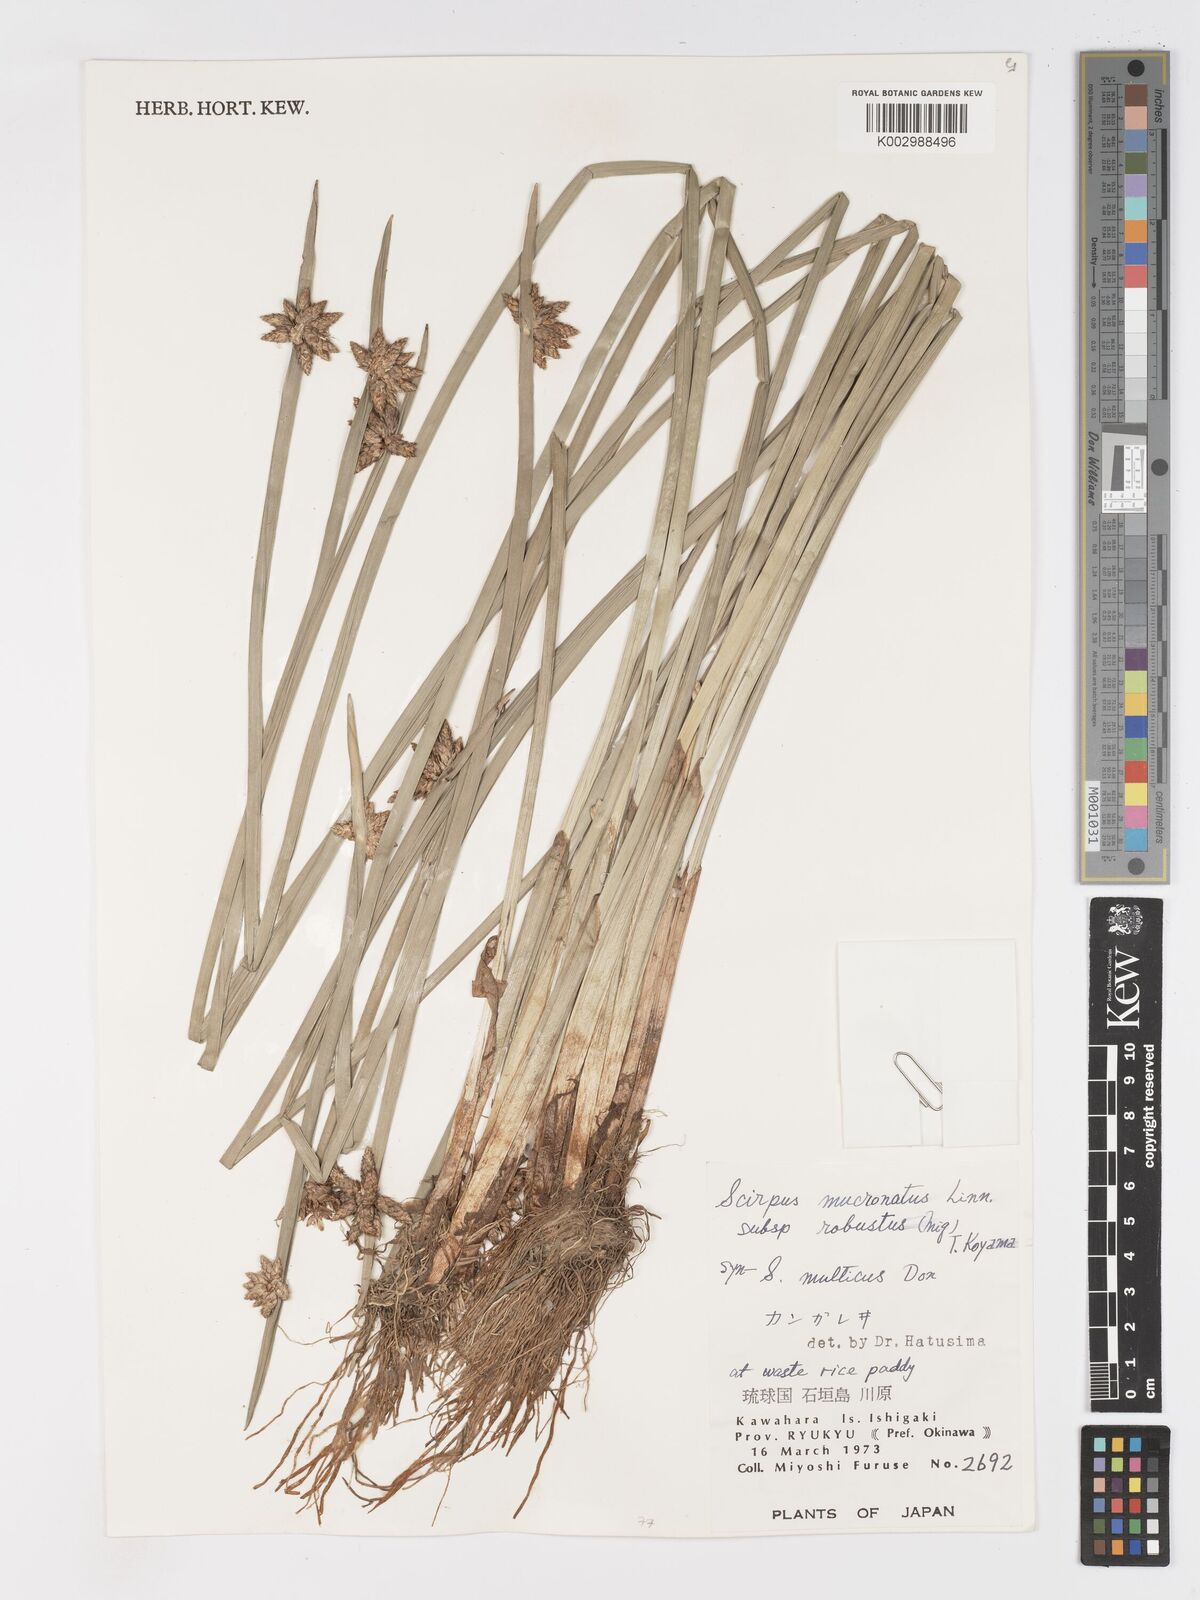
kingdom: Plantae
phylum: Tracheophyta
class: Liliopsida
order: Poales
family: Cyperaceae
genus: Schoenoplectiella
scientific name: Schoenoplectiella triangulata
